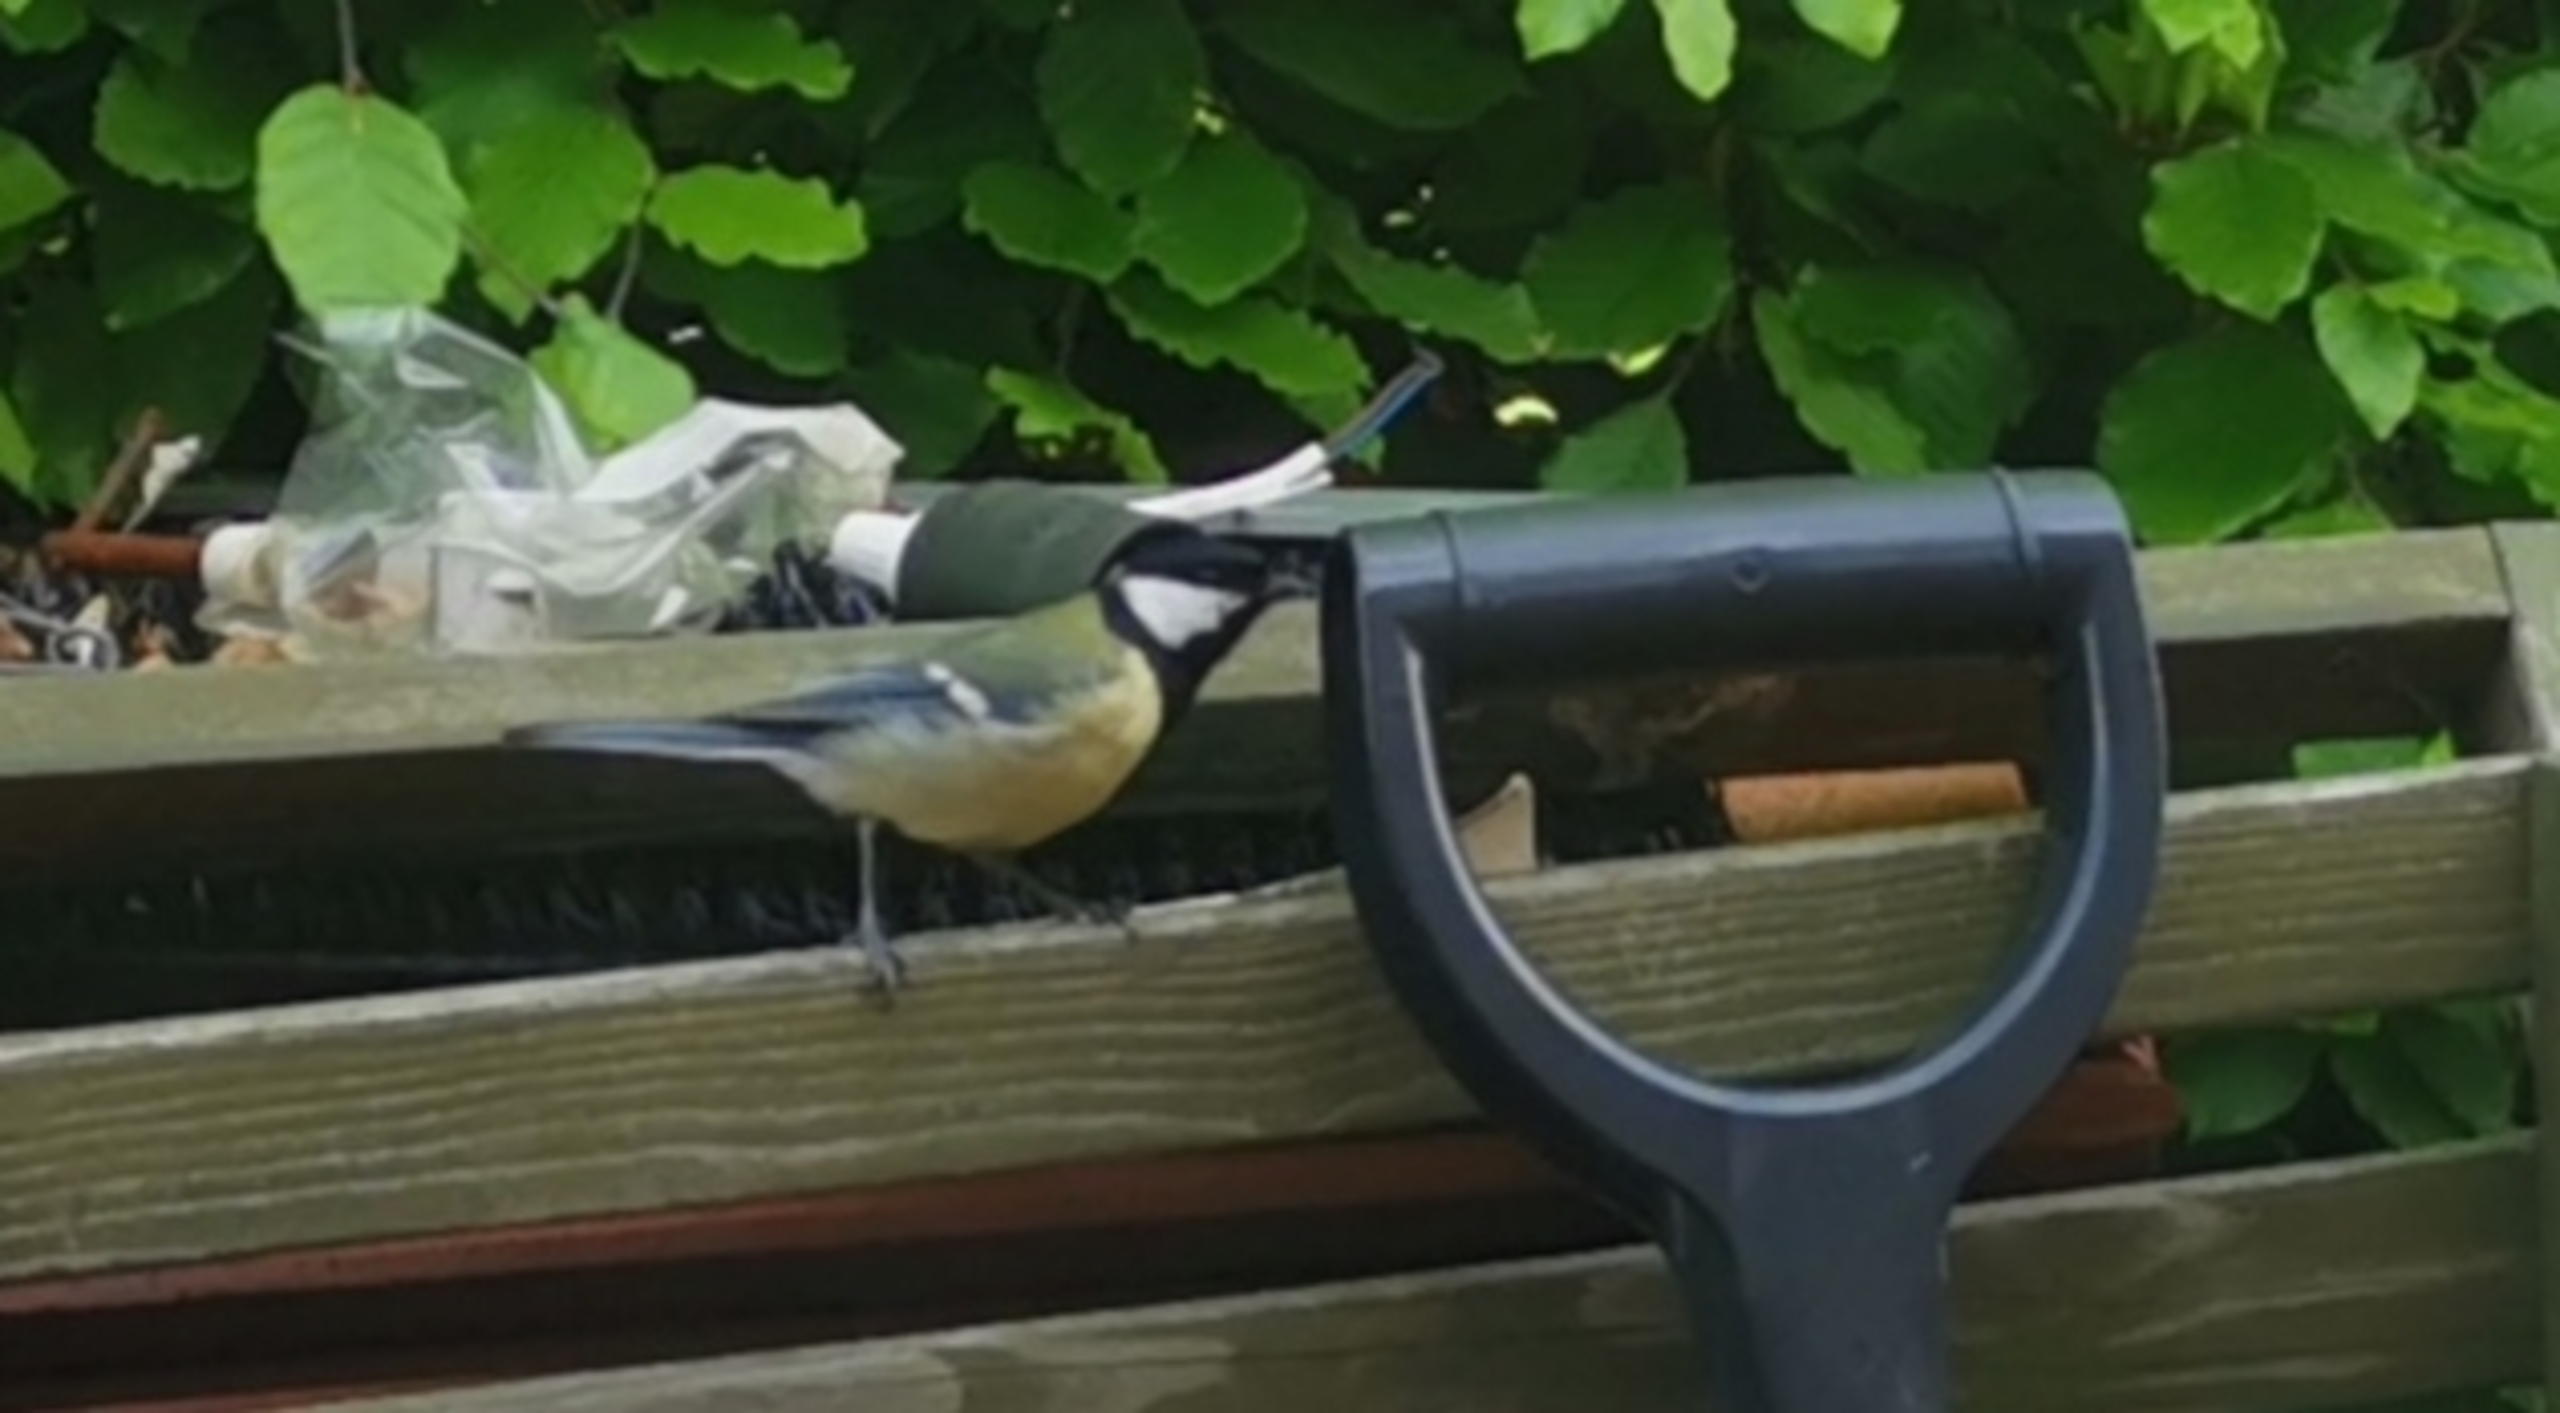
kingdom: Animalia
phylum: Chordata
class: Aves
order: Passeriformes
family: Paridae
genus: Parus
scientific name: Parus major
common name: Musvit
